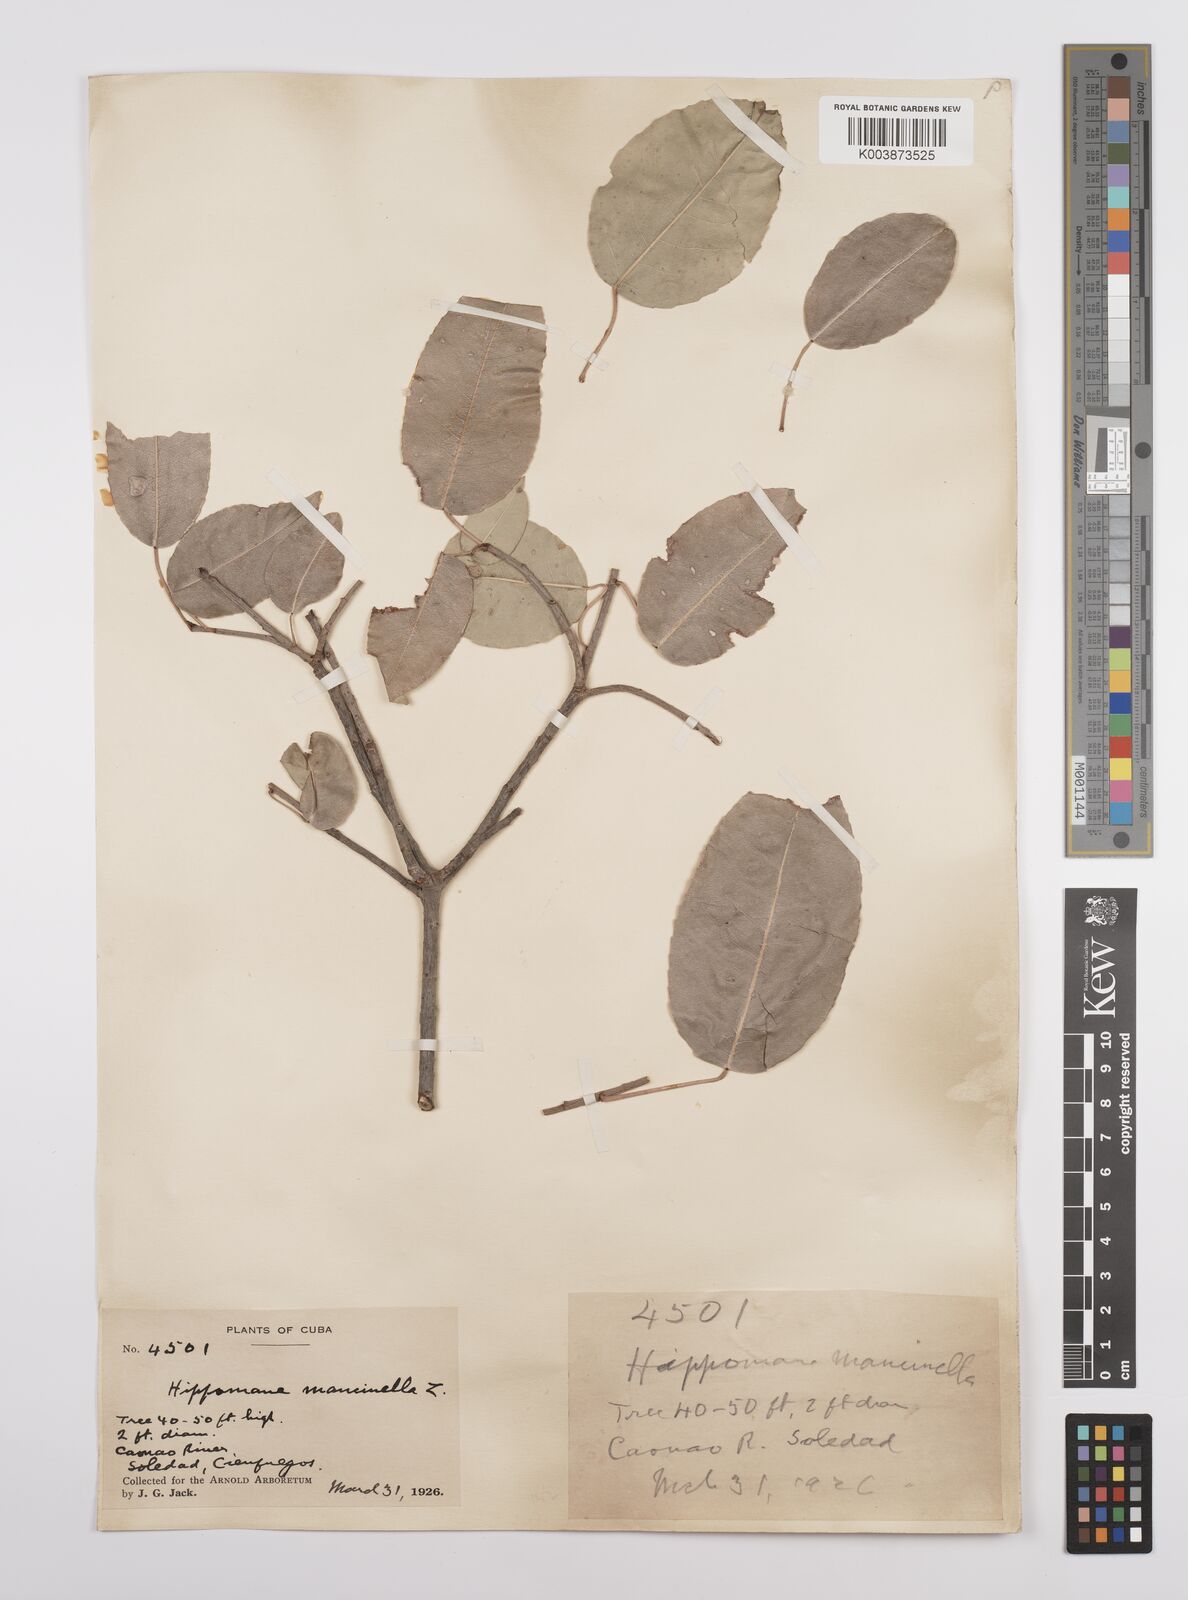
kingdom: Plantae
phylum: Tracheophyta
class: Magnoliopsida
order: Malpighiales
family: Euphorbiaceae
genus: Hippomane
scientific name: Hippomane mancinella
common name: Manchineel
